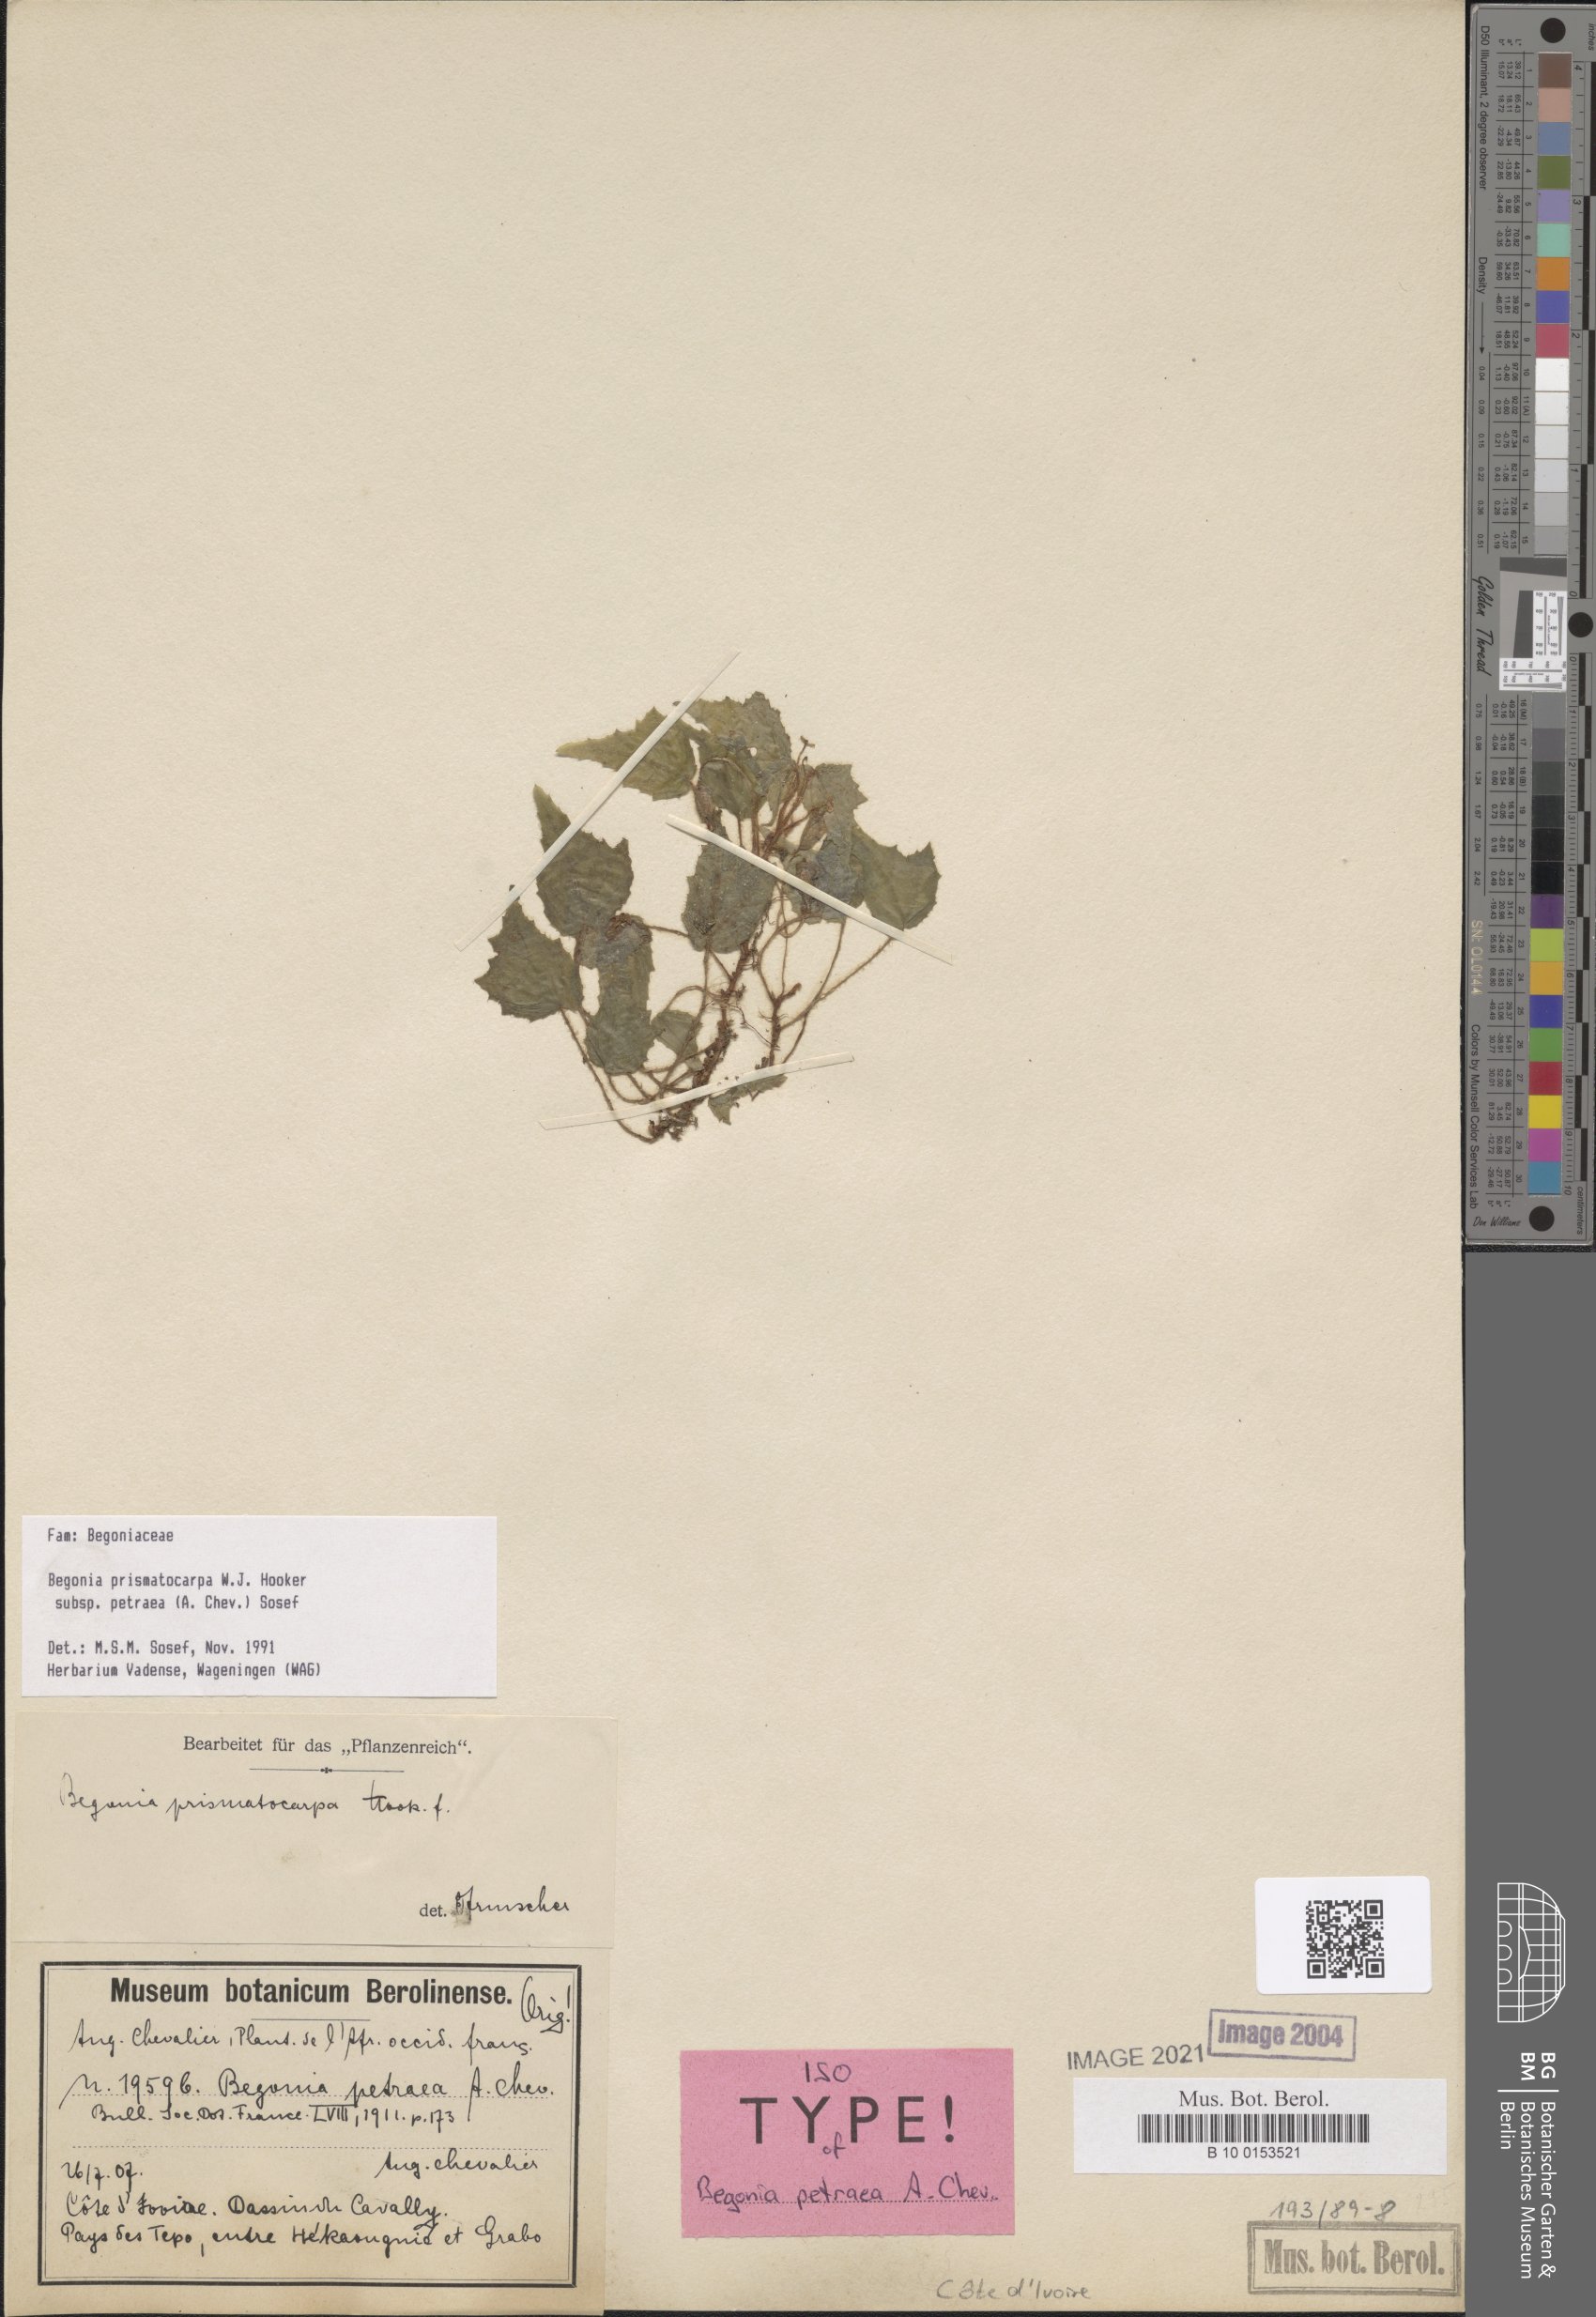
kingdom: Plantae
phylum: Tracheophyta
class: Magnoliopsida
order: Cucurbitales
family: Begoniaceae
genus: Begonia
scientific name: Begonia prismatocarpa
